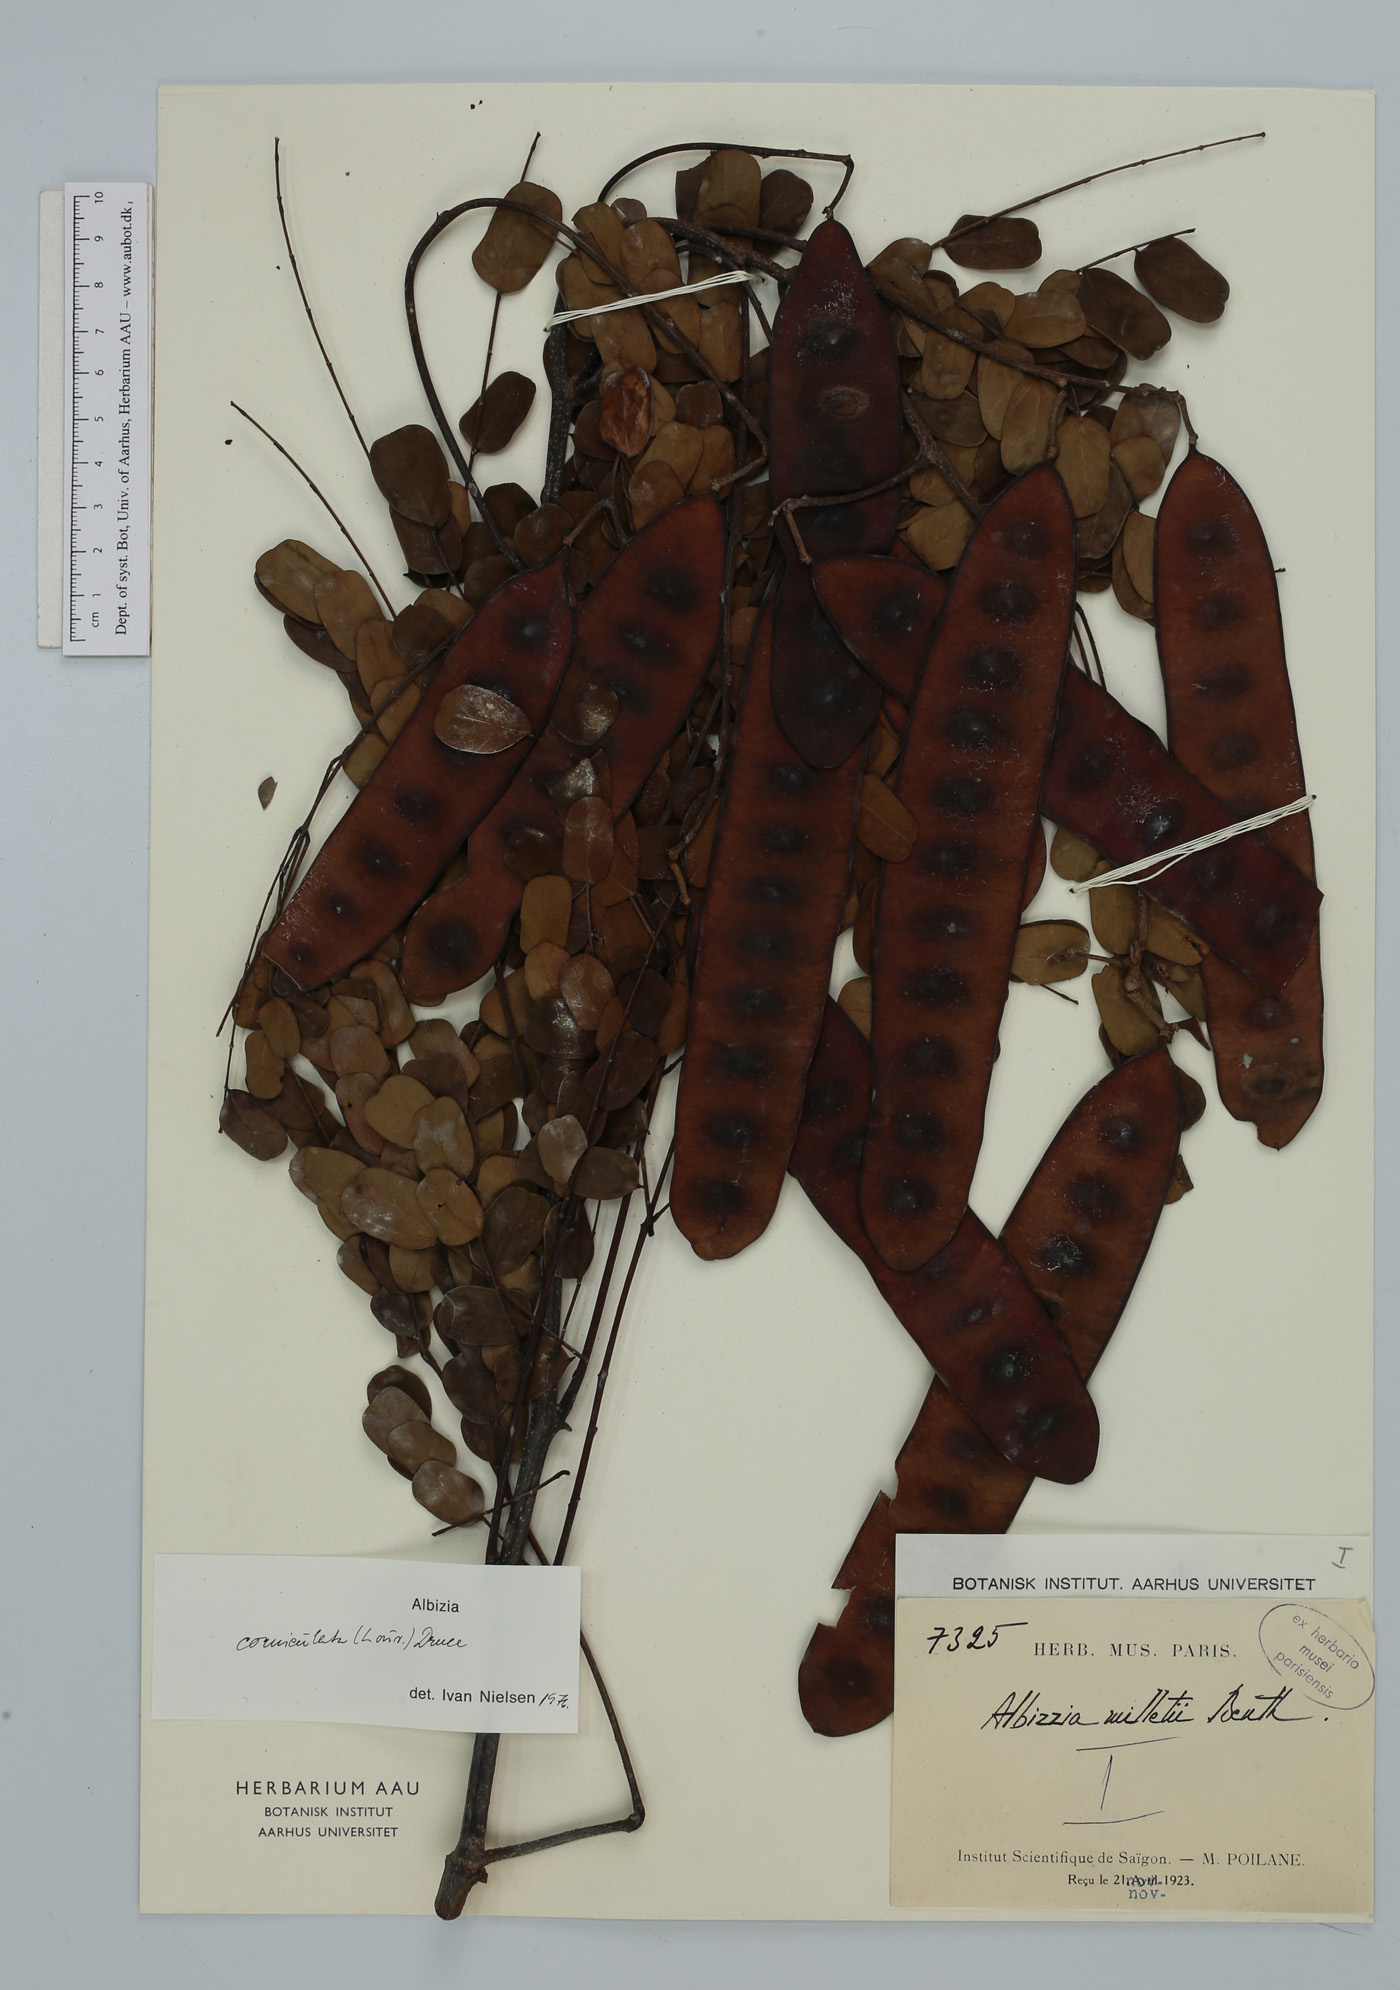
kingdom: Plantae
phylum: Tracheophyta
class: Magnoliopsida
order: Fabales
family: Fabaceae
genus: Albizia
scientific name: Albizia corniculata
